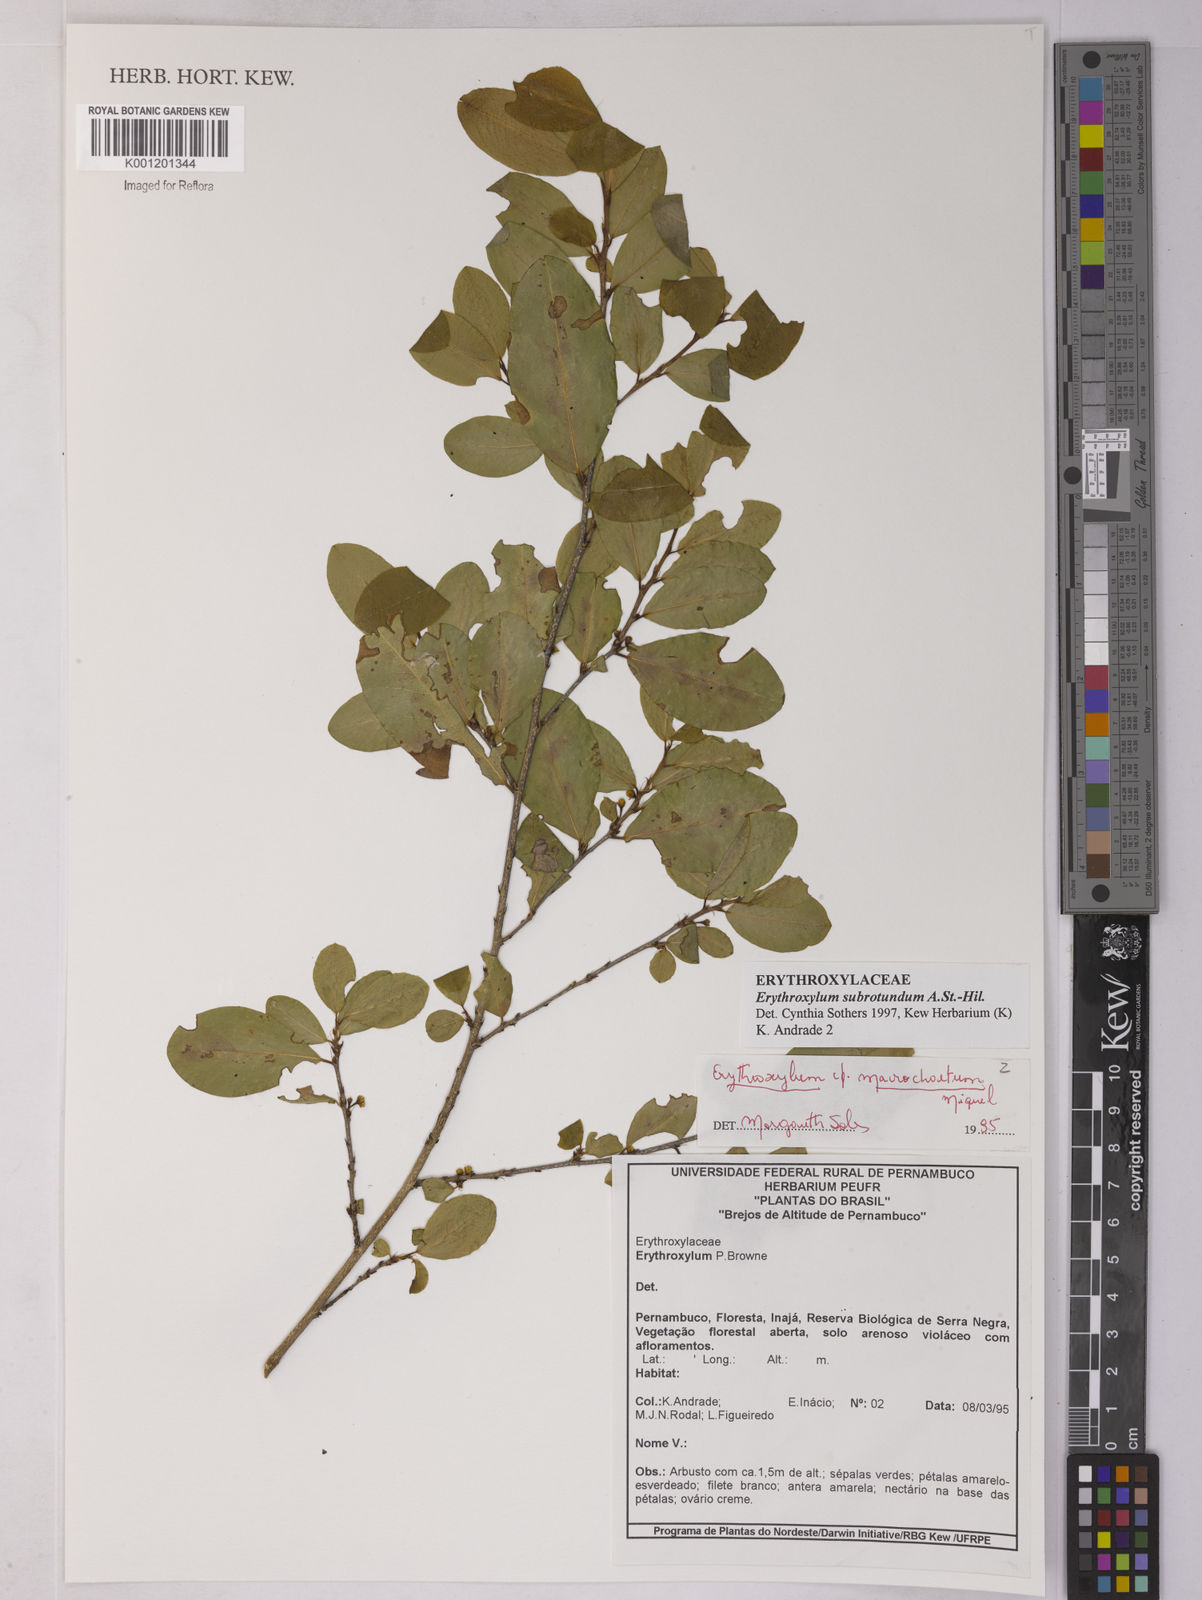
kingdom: Plantae
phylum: Tracheophyta
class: Magnoliopsida
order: Malpighiales
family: Erythroxylaceae
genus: Erythroxylum
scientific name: Erythroxylum subrotundum
